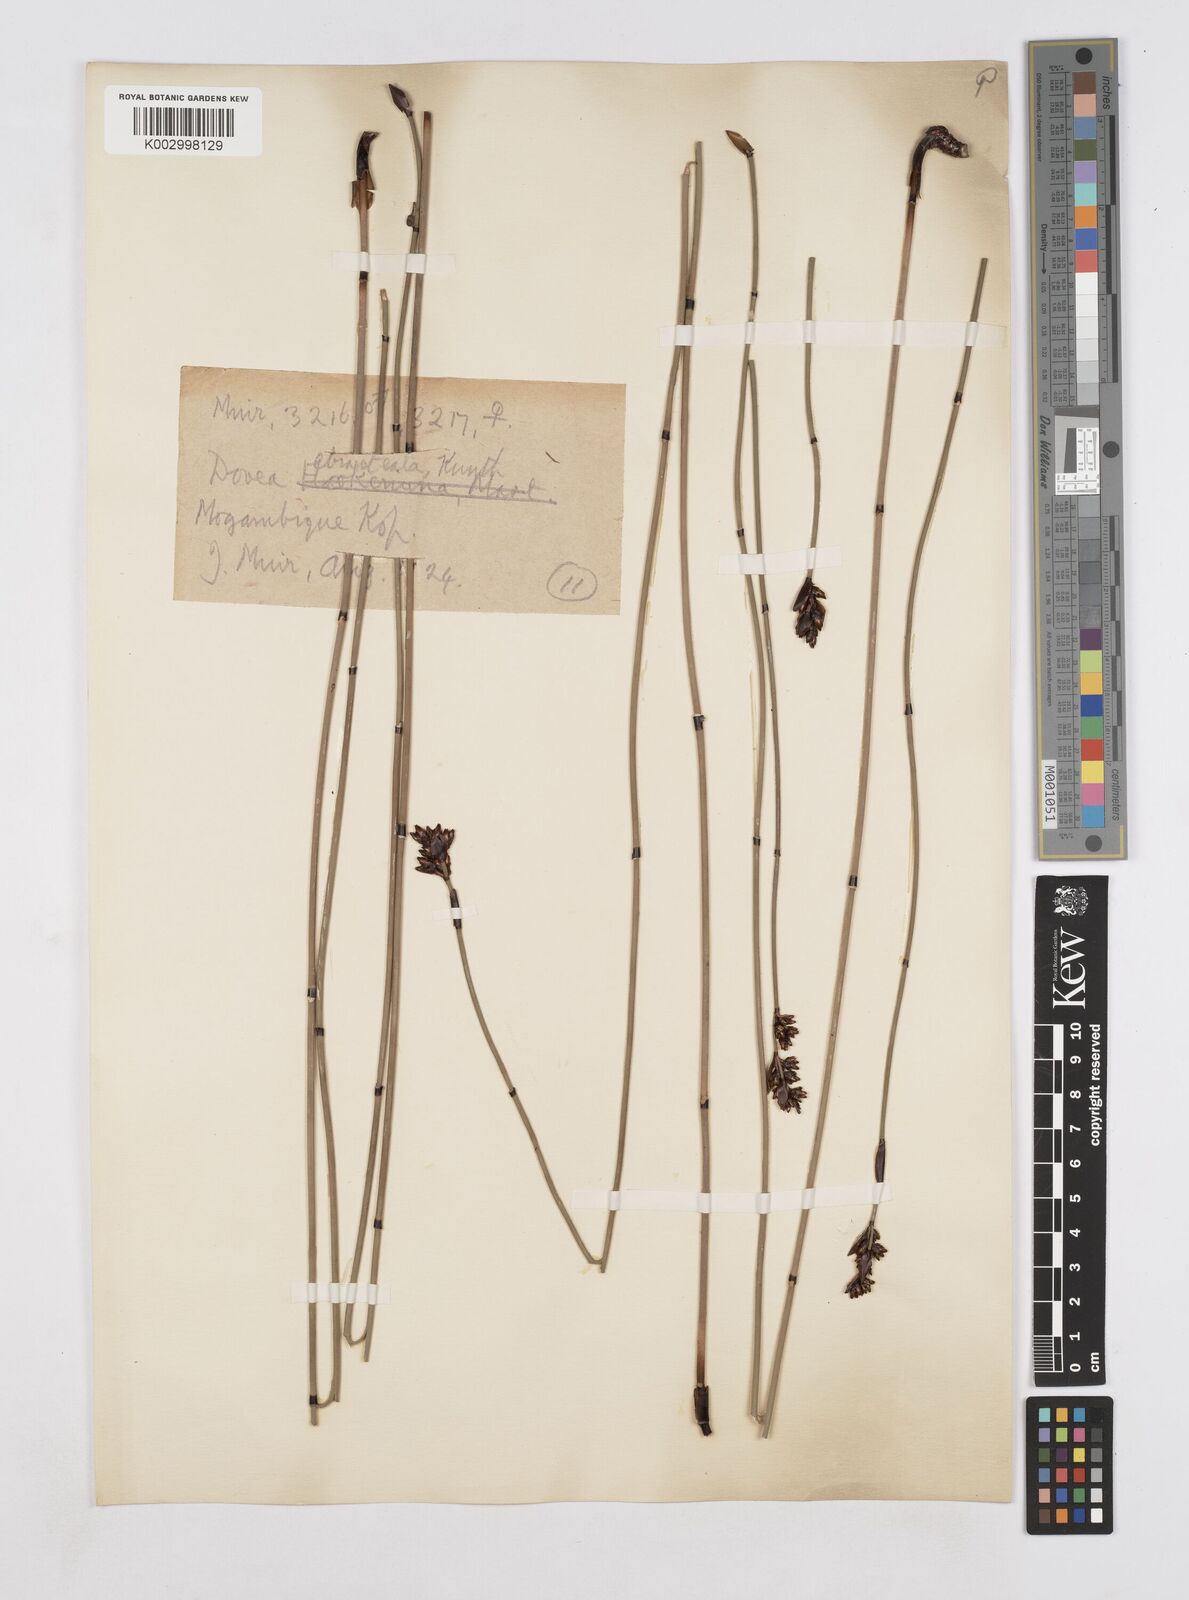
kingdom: Plantae
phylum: Tracheophyta
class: Liliopsida
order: Poales
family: Restionaceae
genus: Elegia
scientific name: Elegia ebracteata
